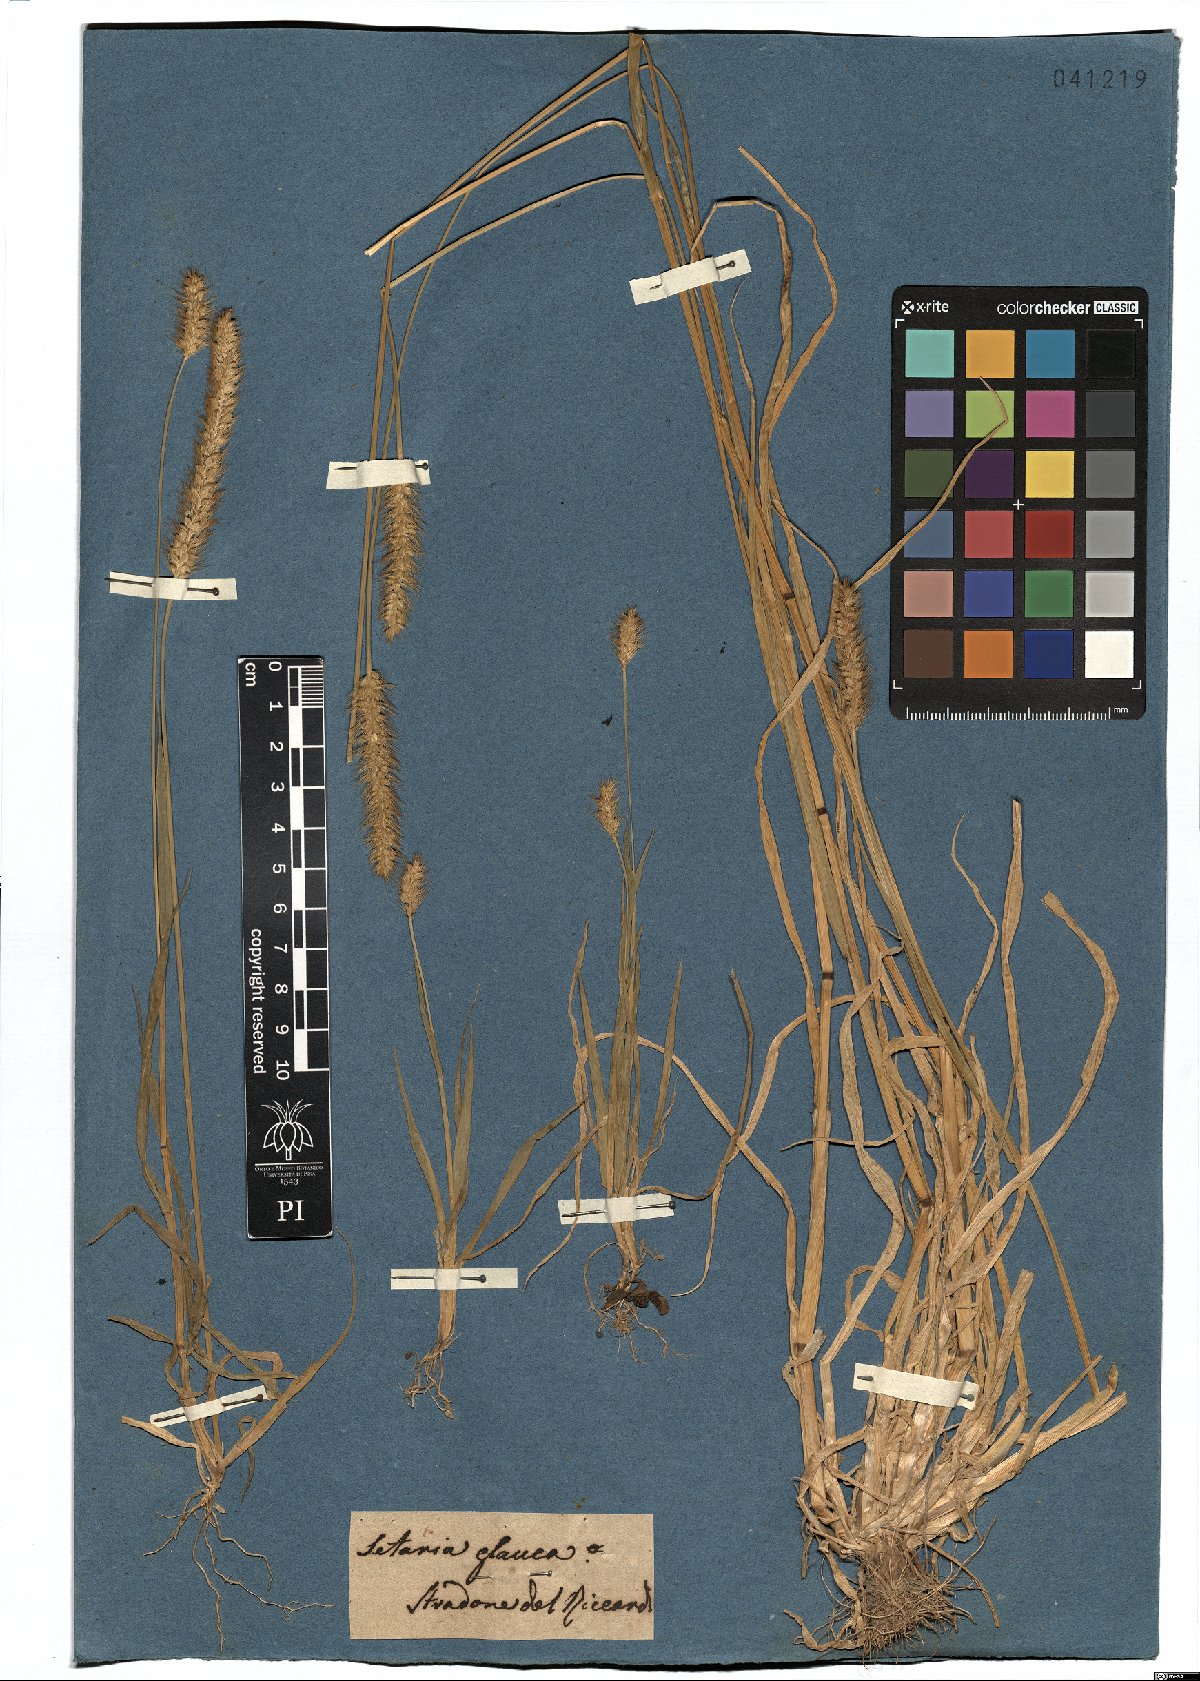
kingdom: Plantae
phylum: Tracheophyta
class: Liliopsida
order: Poales
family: Poaceae
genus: Cenchrus
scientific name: Cenchrus americanus
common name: Pearl millet
